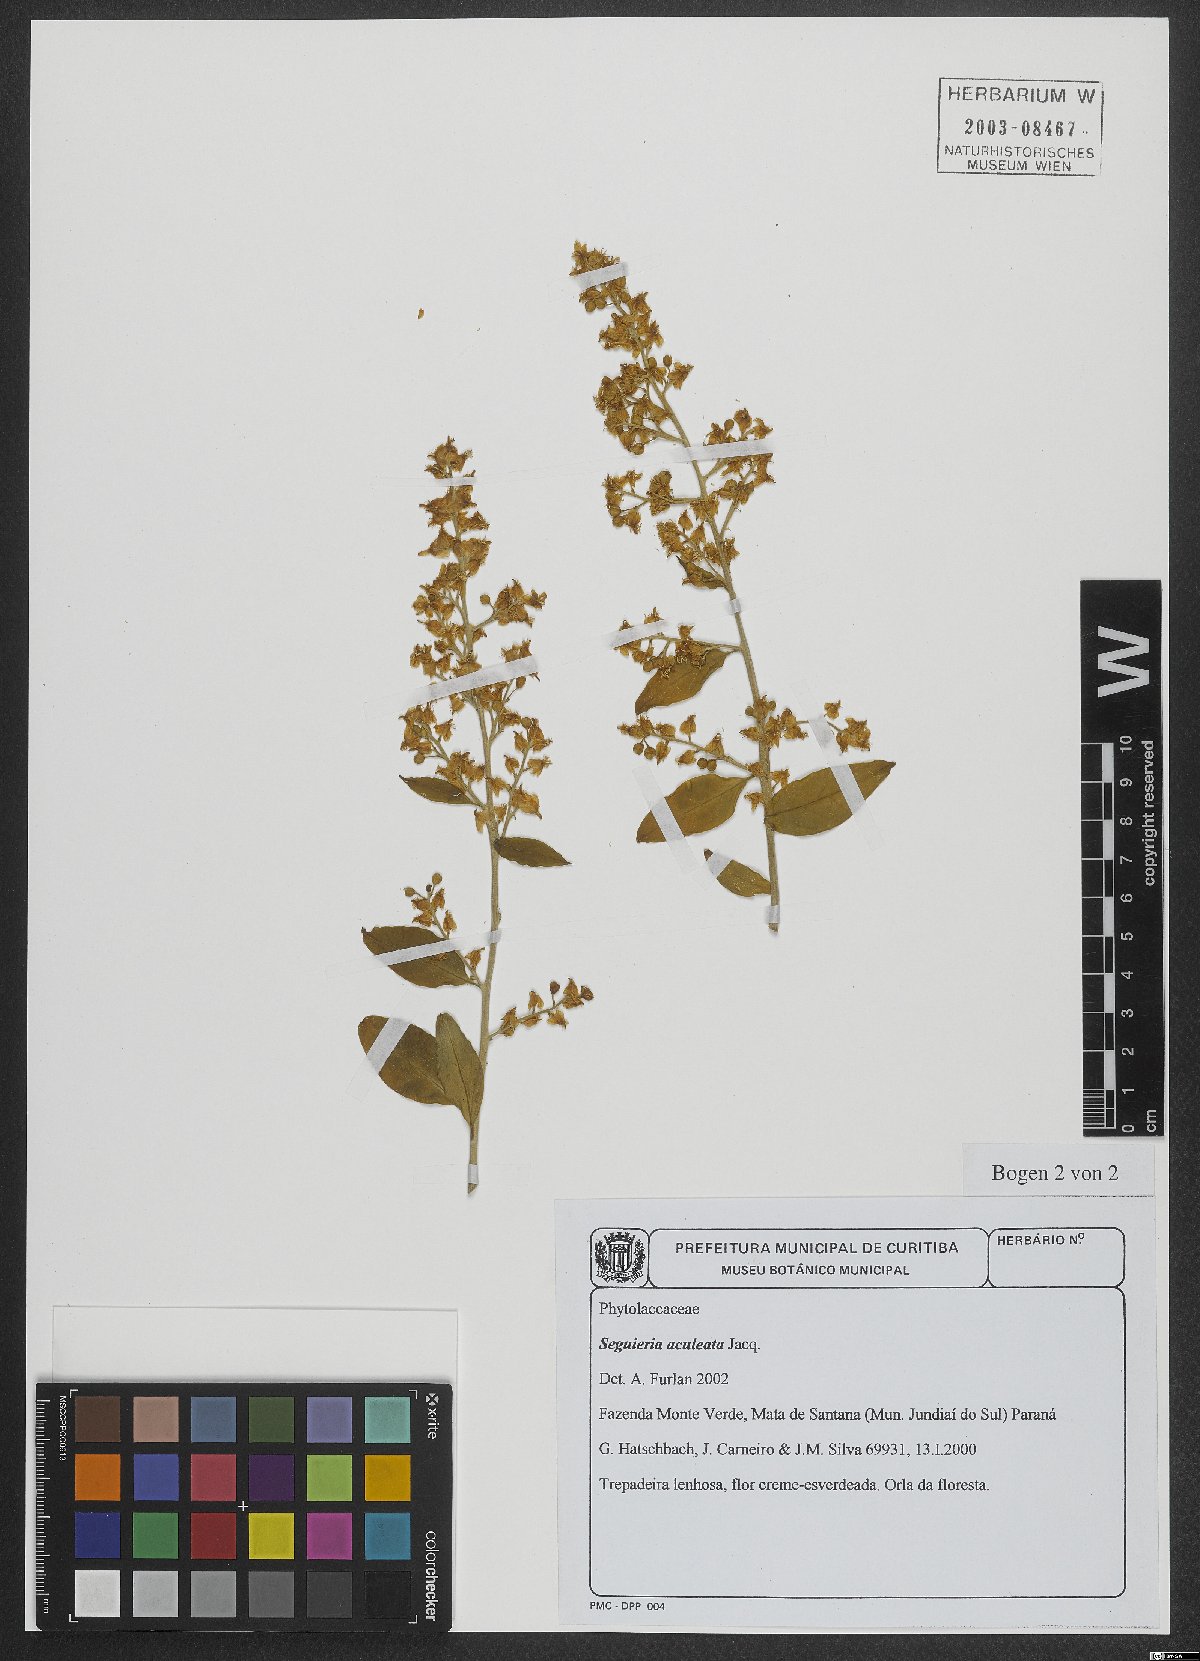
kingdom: Plantae
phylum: Tracheophyta
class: Magnoliopsida
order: Caryophyllales
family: Phytolaccaceae
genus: Seguieria
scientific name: Seguieria aculeata
